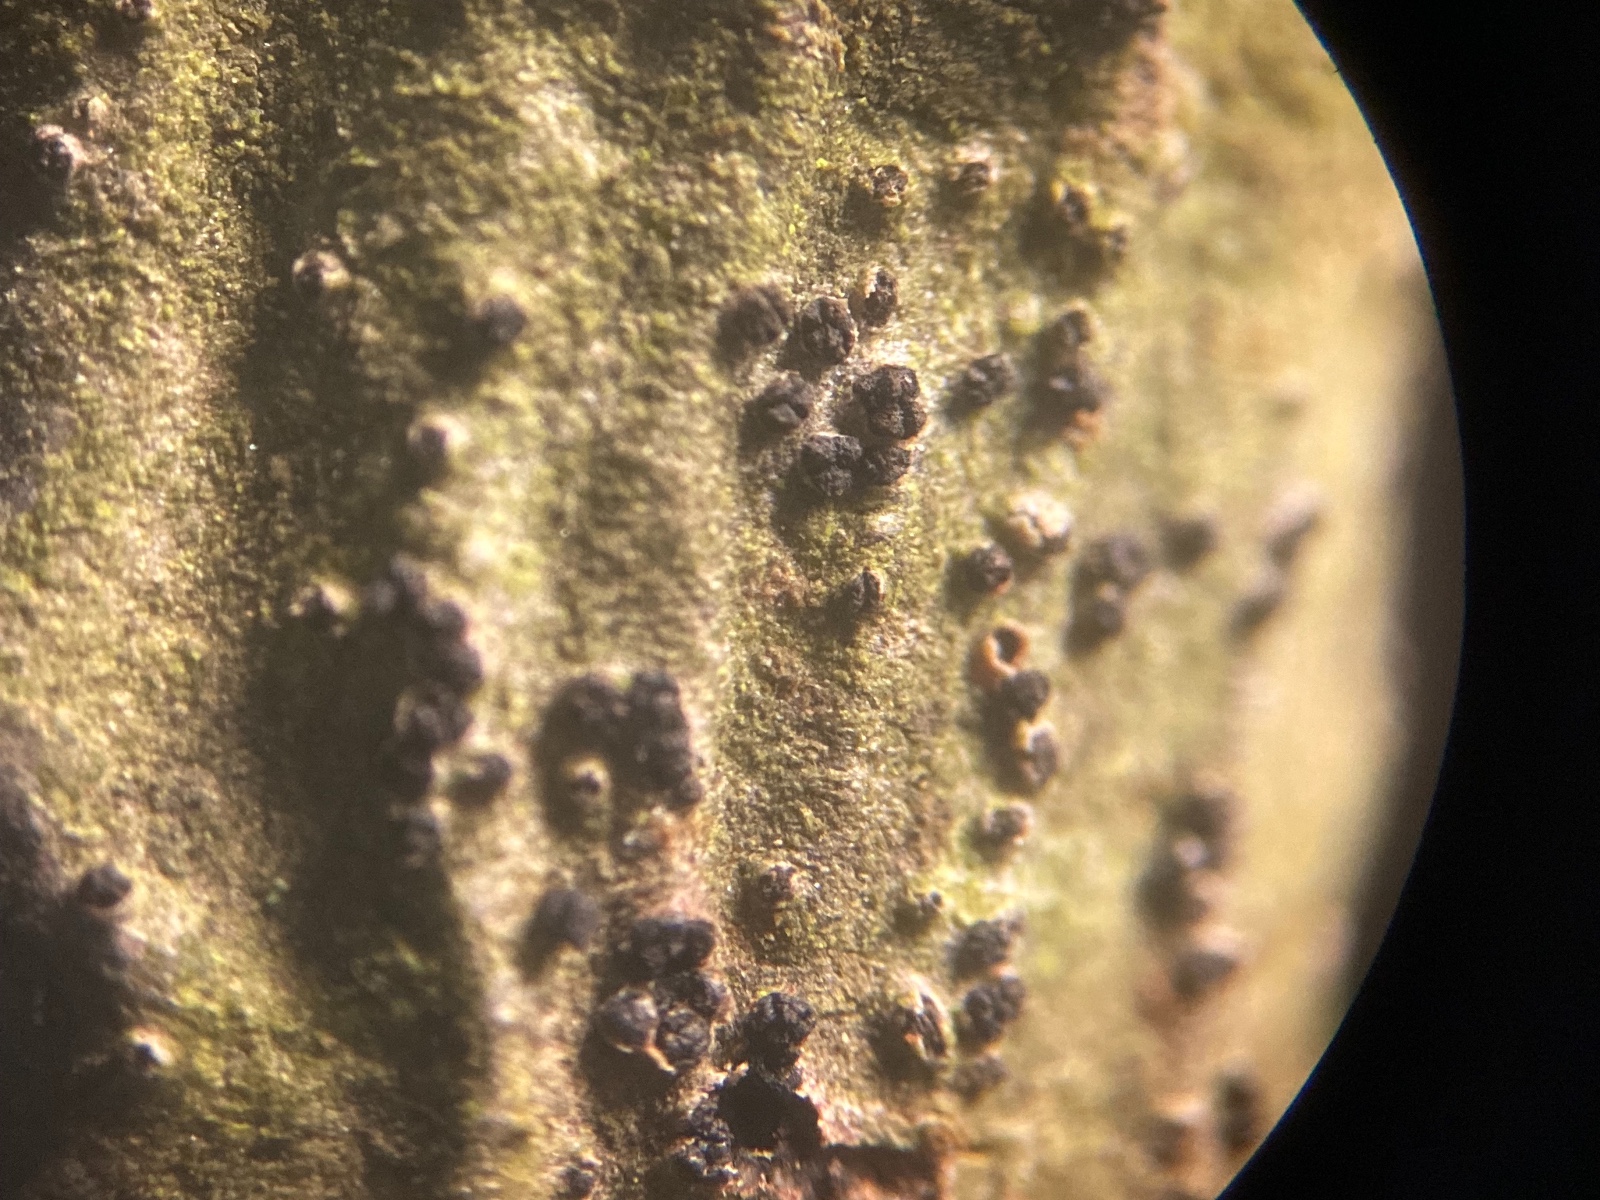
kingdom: Fungi
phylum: Ascomycota
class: Sordariomycetes
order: Diaporthales
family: Valsaceae
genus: Cytospora
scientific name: Cytospora bungeanae
